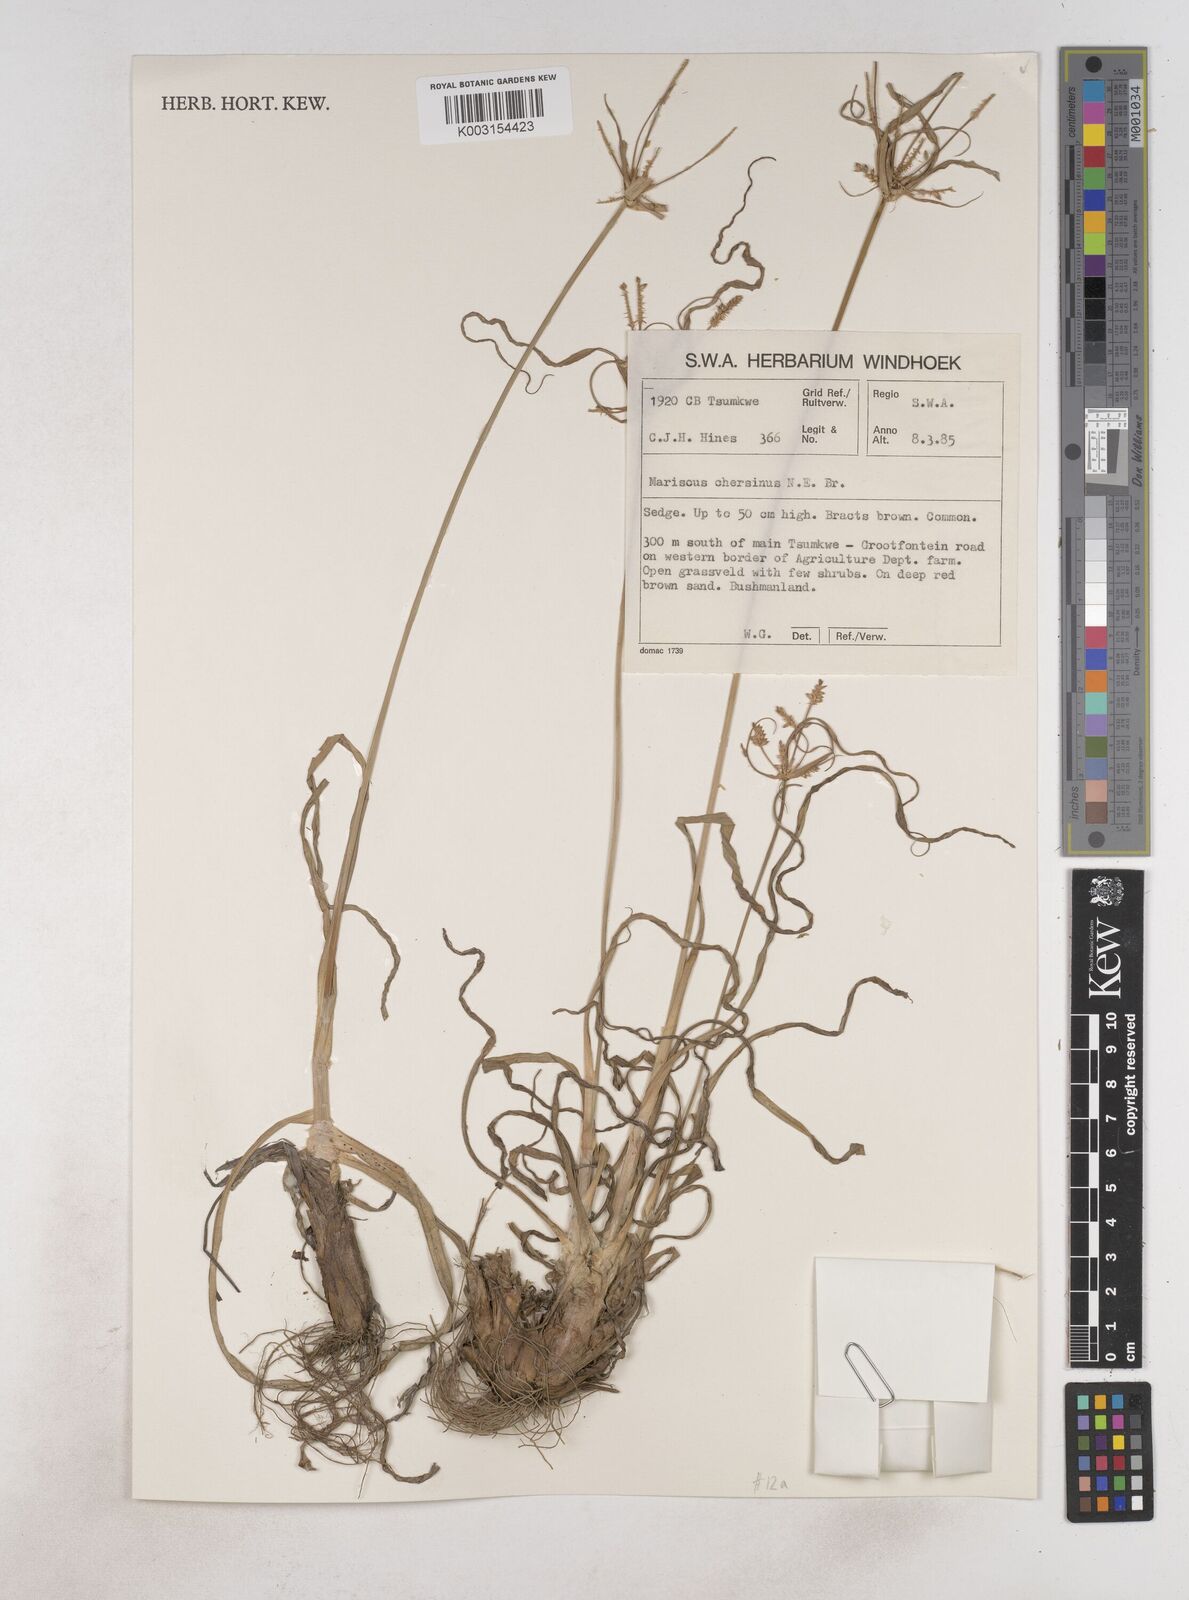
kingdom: Plantae
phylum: Tracheophyta
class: Liliopsida
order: Poales
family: Cyperaceae
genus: Cyperus
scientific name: Cyperus chersinus
